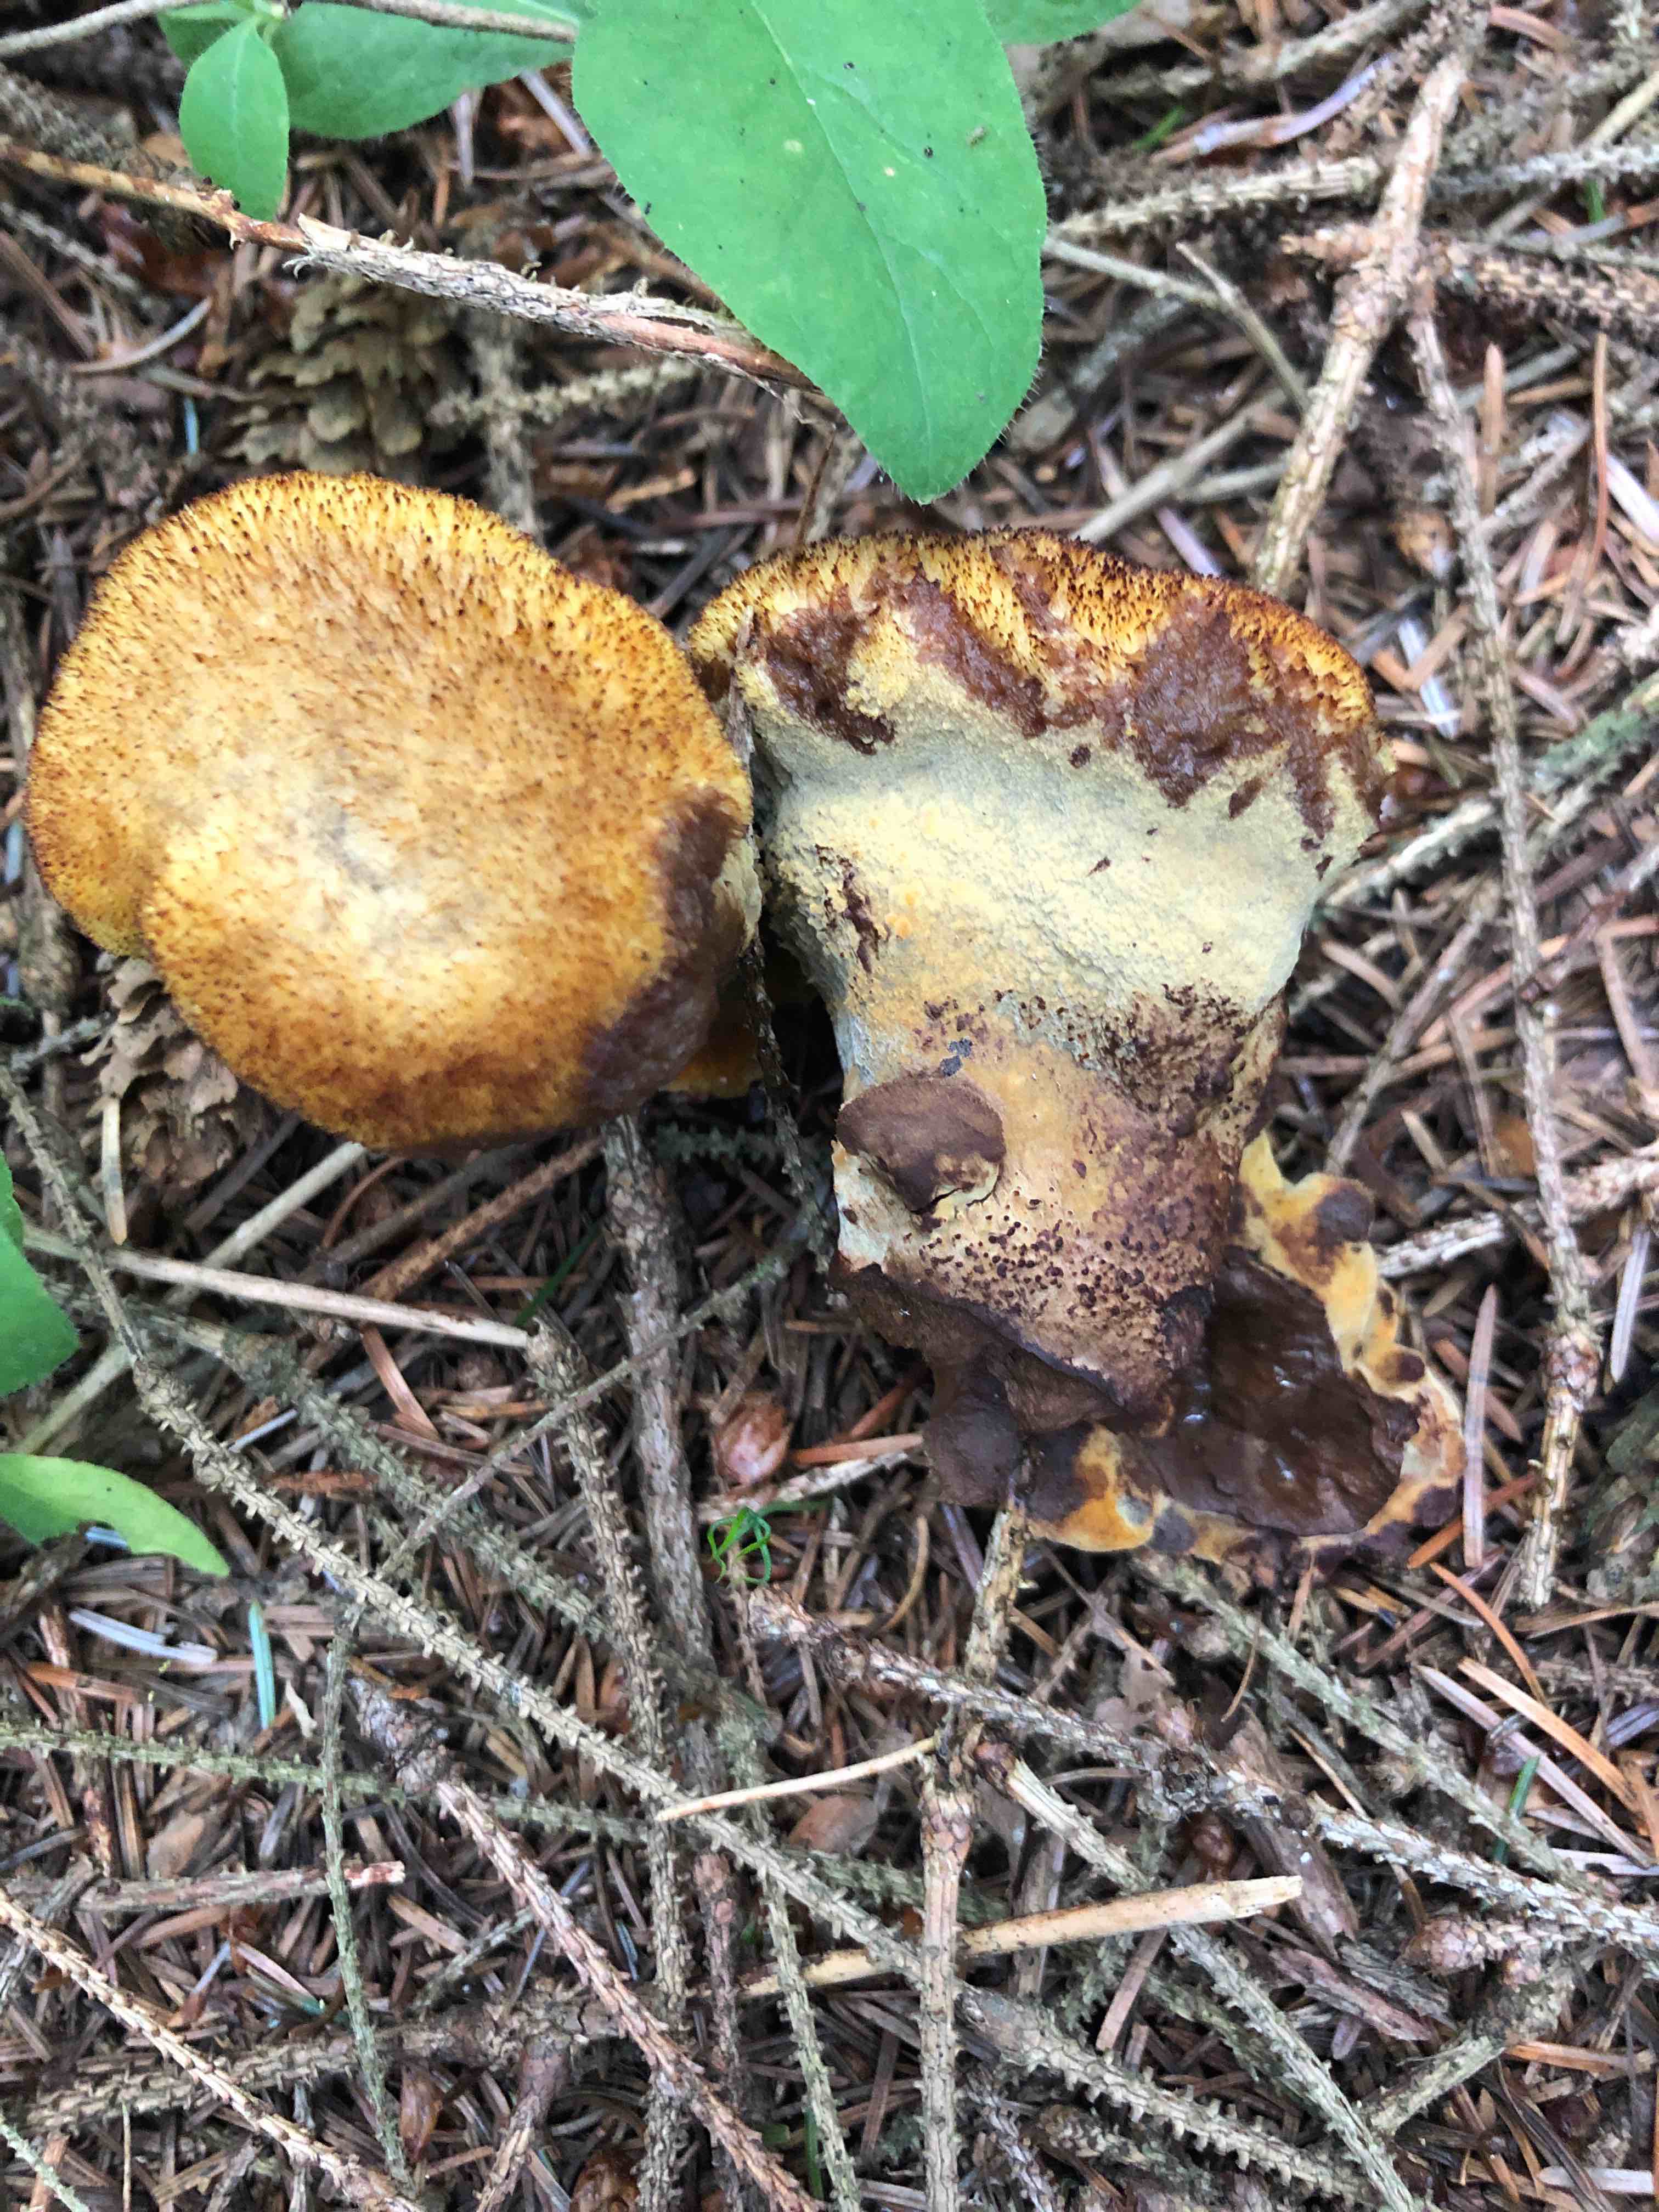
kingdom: Fungi
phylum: Basidiomycota
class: Agaricomycetes
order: Polyporales
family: Laetiporaceae
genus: Phaeolus
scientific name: Phaeolus schweinitzii
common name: brunporesvamp
